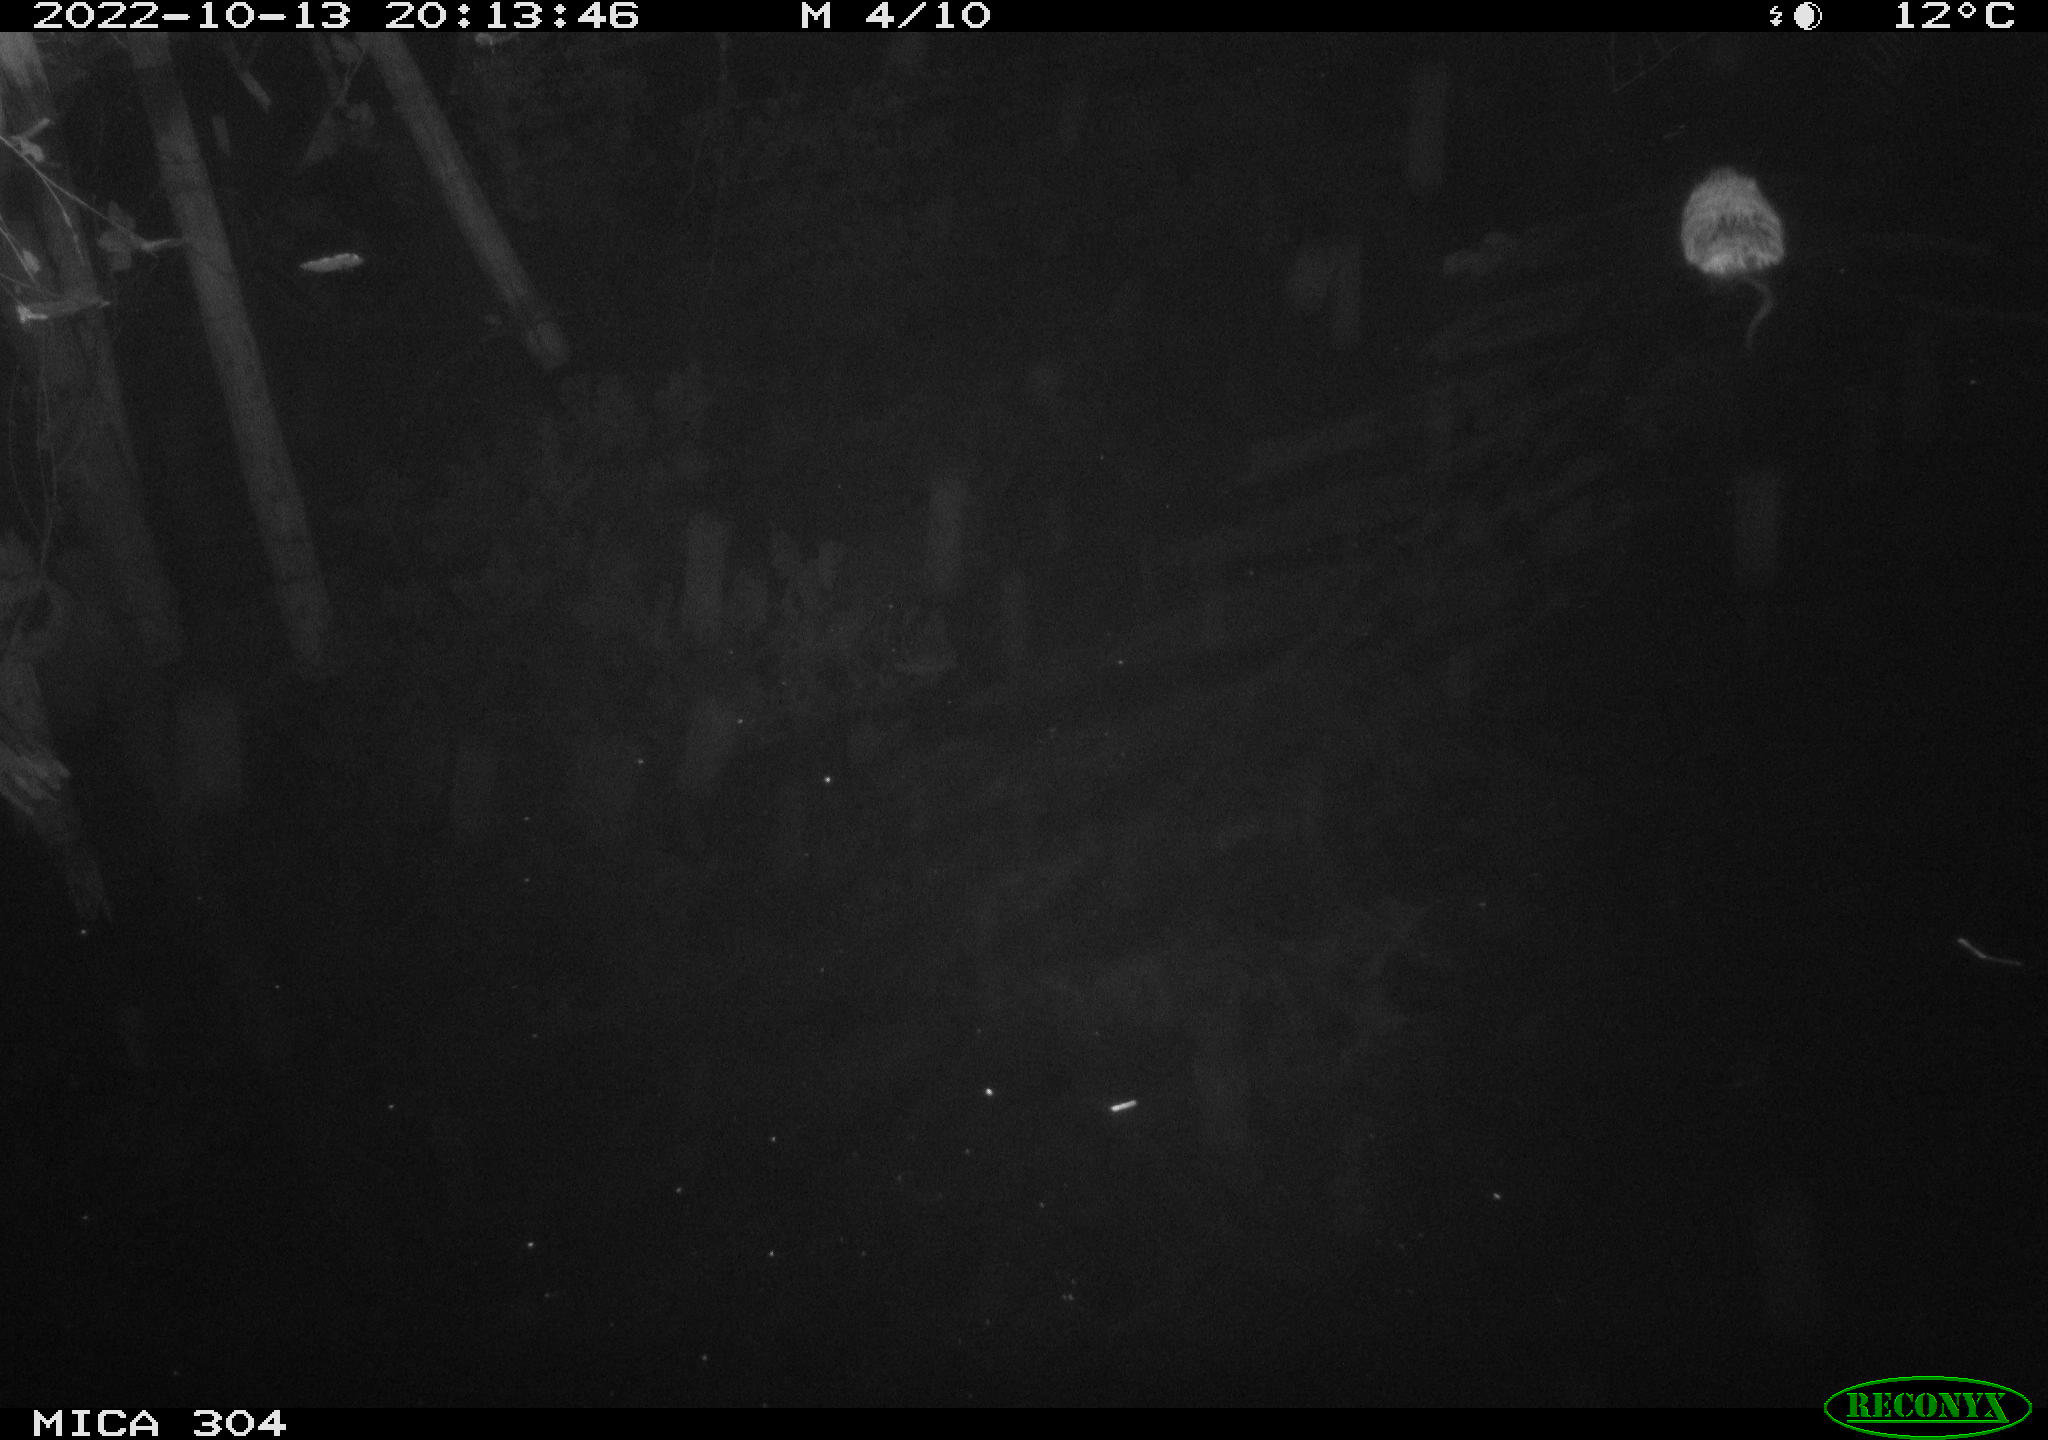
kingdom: Animalia
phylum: Chordata
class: Mammalia
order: Rodentia
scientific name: Rodentia
